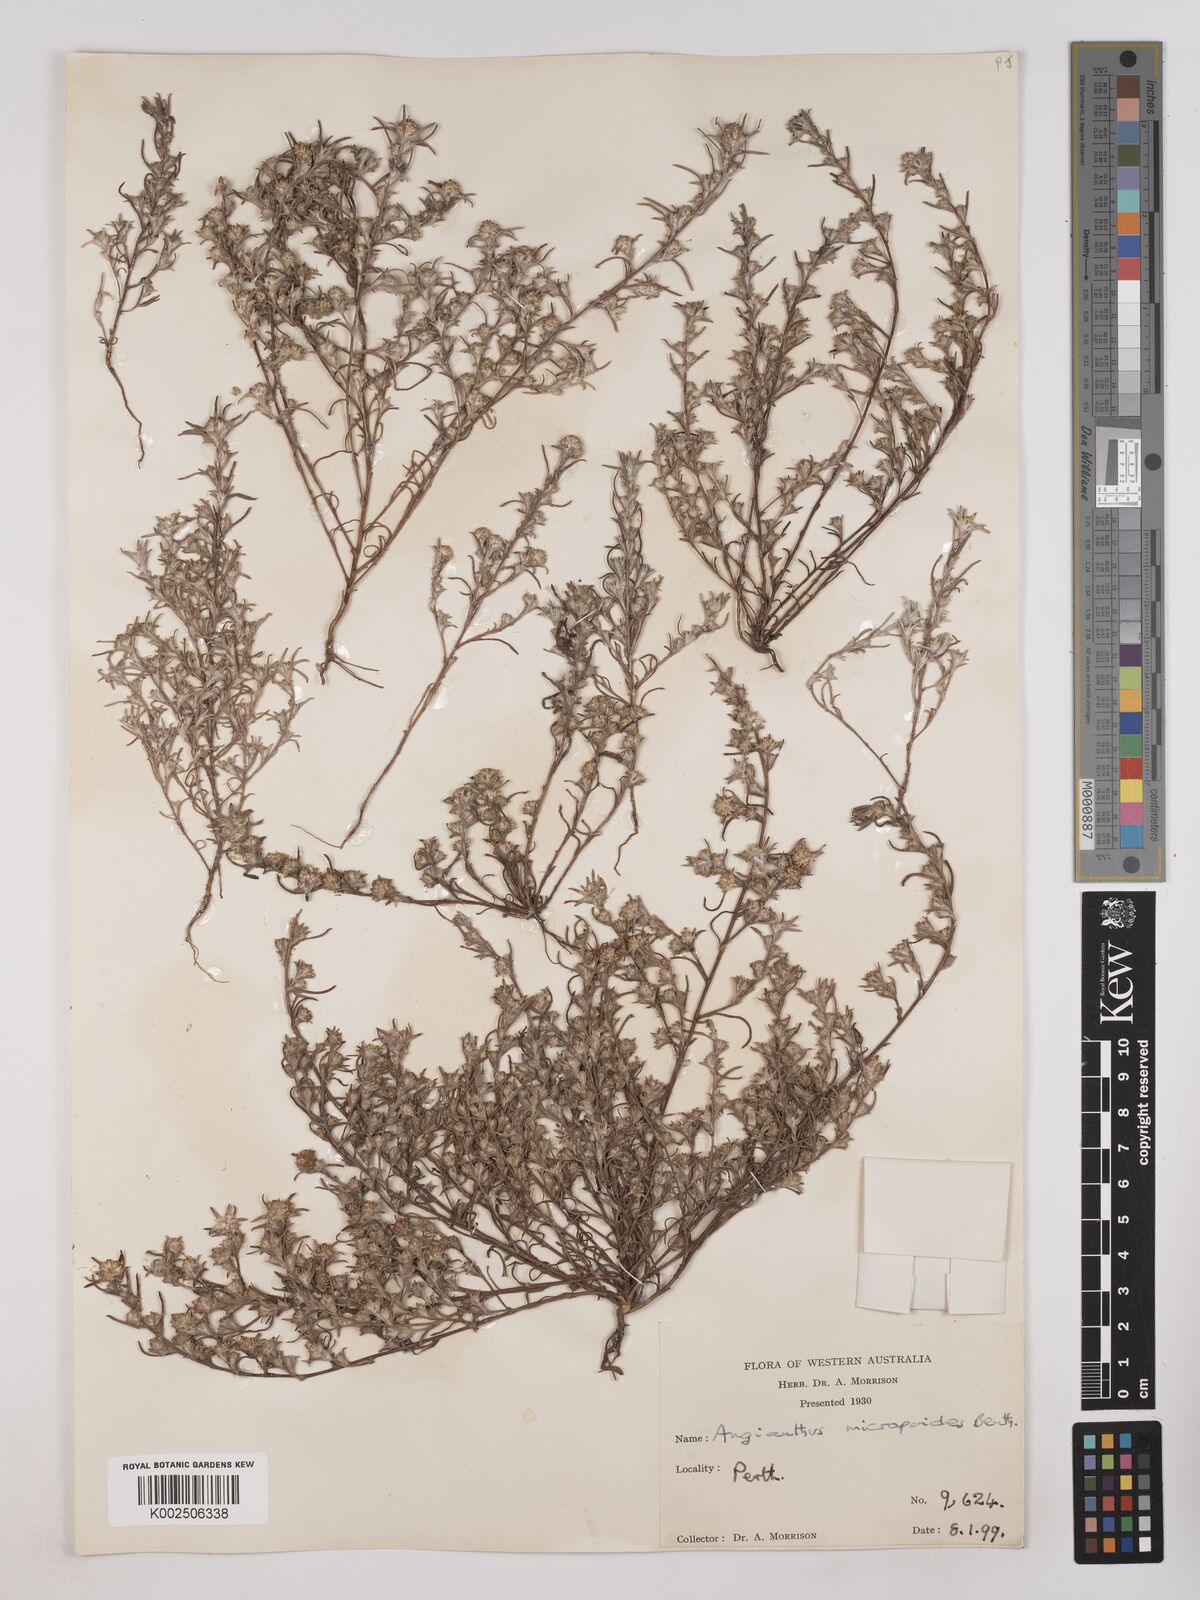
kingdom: Plantae
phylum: Tracheophyta
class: Magnoliopsida
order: Asterales
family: Asteraceae
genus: Angianthus
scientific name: Angianthus micropodioides
